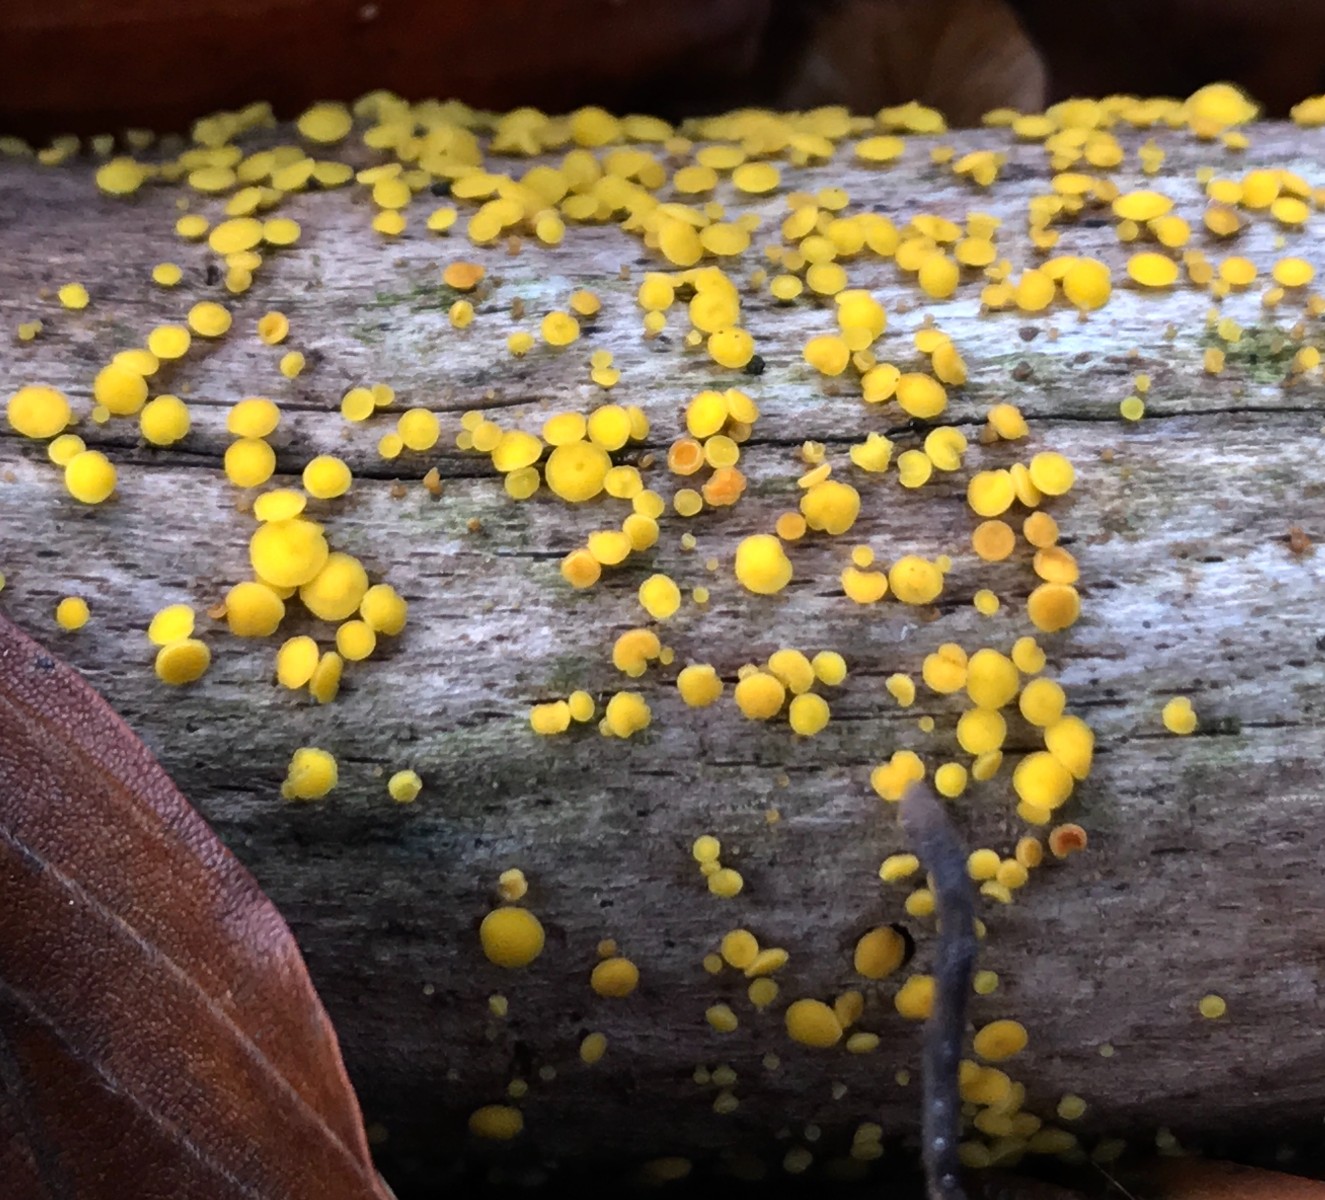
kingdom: Fungi
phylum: Ascomycota
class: Leotiomycetes
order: Helotiales
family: Pezizellaceae
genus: Calycina
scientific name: Calycina citrina
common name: almindelig gulskive
